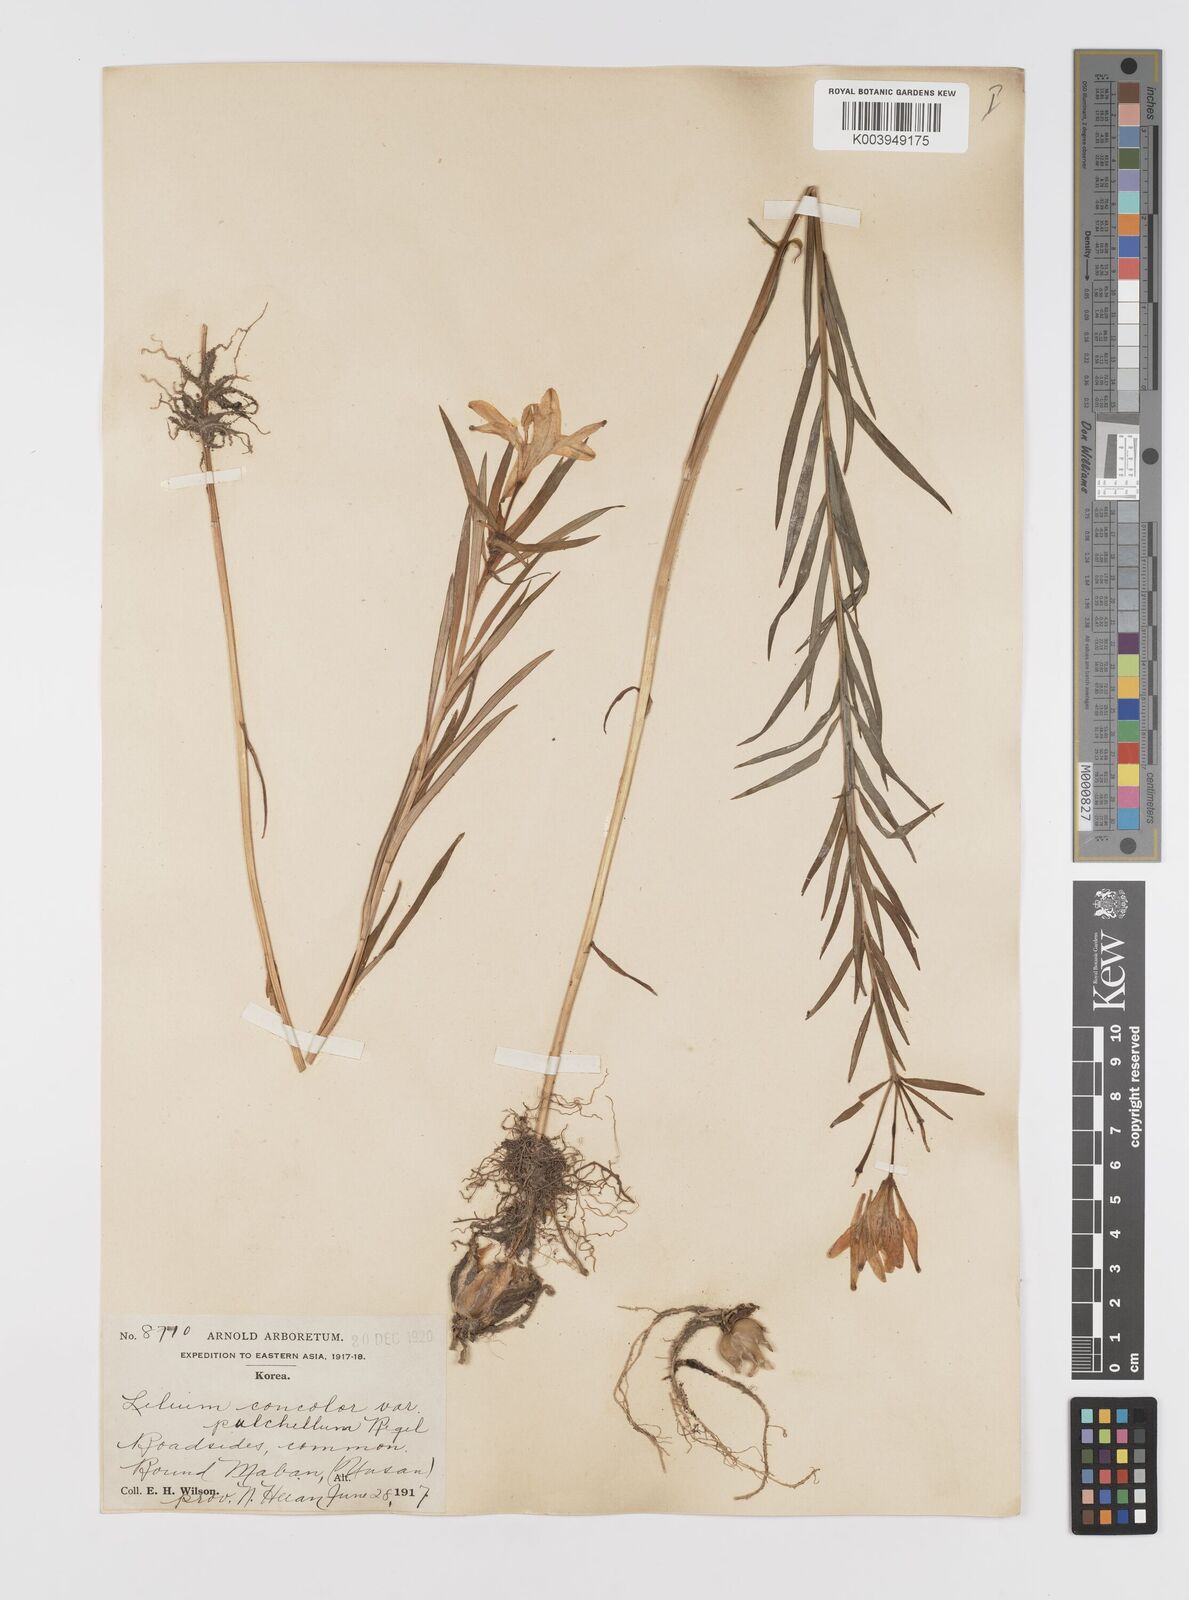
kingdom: Plantae
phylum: Tracheophyta
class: Liliopsida
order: Liliales
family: Liliaceae
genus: Lilium
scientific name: Lilium concolor
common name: Morning-star lily
